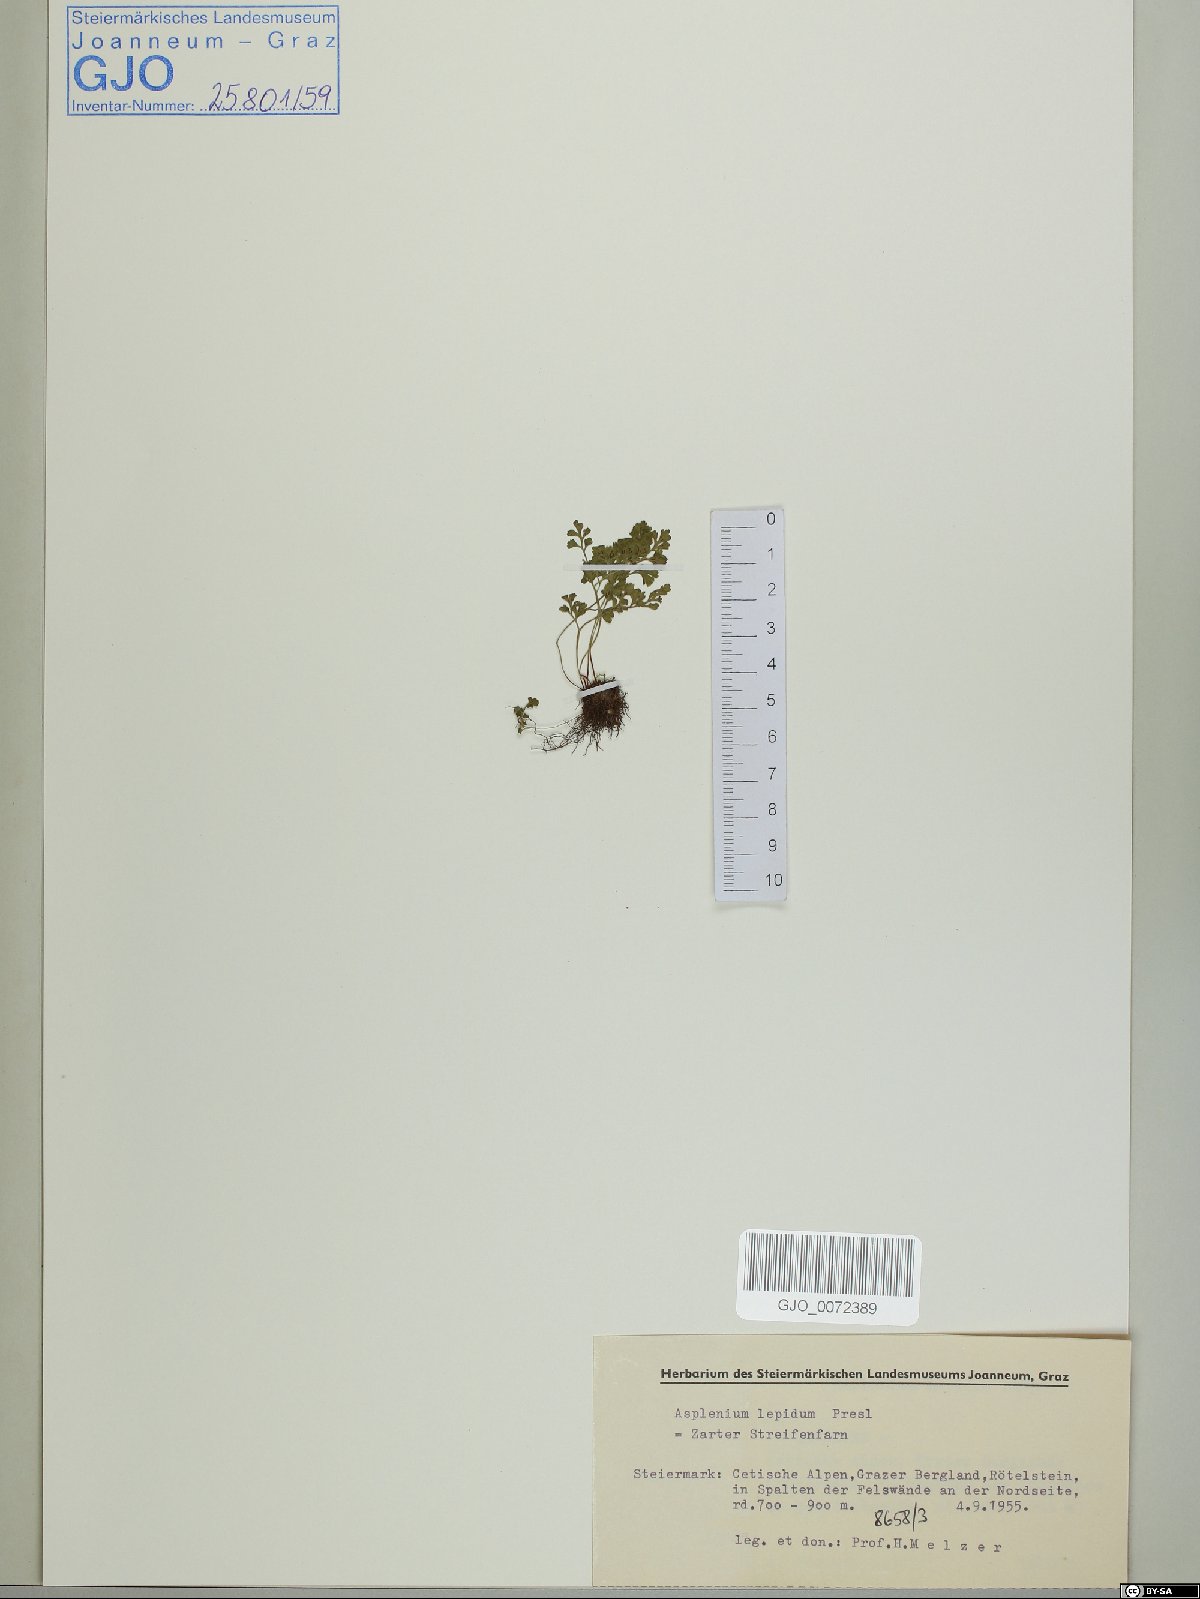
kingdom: Plantae
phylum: Tracheophyta
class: Polypodiopsida
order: Polypodiales
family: Aspleniaceae
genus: Asplenium
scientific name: Asplenium lepidum
